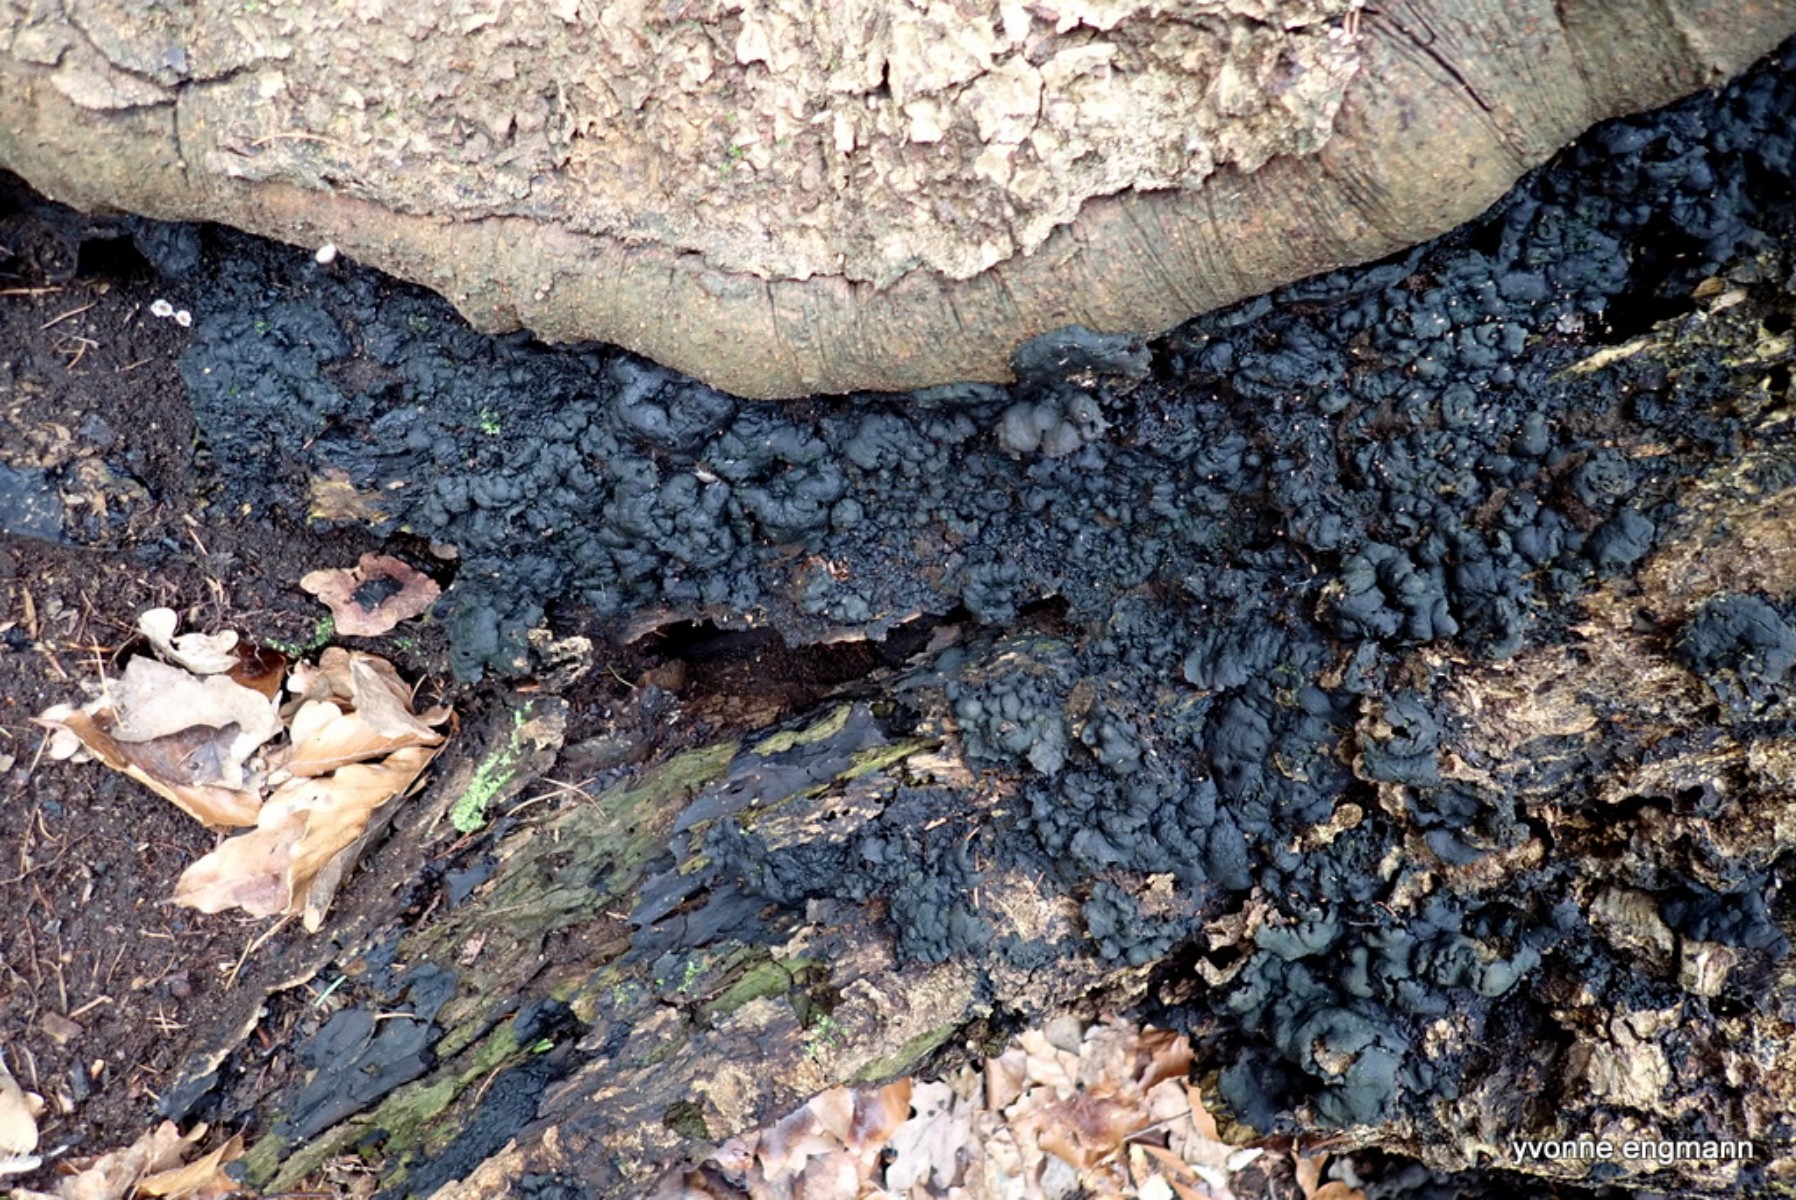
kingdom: Fungi
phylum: Ascomycota
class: Sordariomycetes
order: Xylariales
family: Xylariaceae
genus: Kretzschmaria
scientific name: Kretzschmaria deusta
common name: stor kulsvamp
